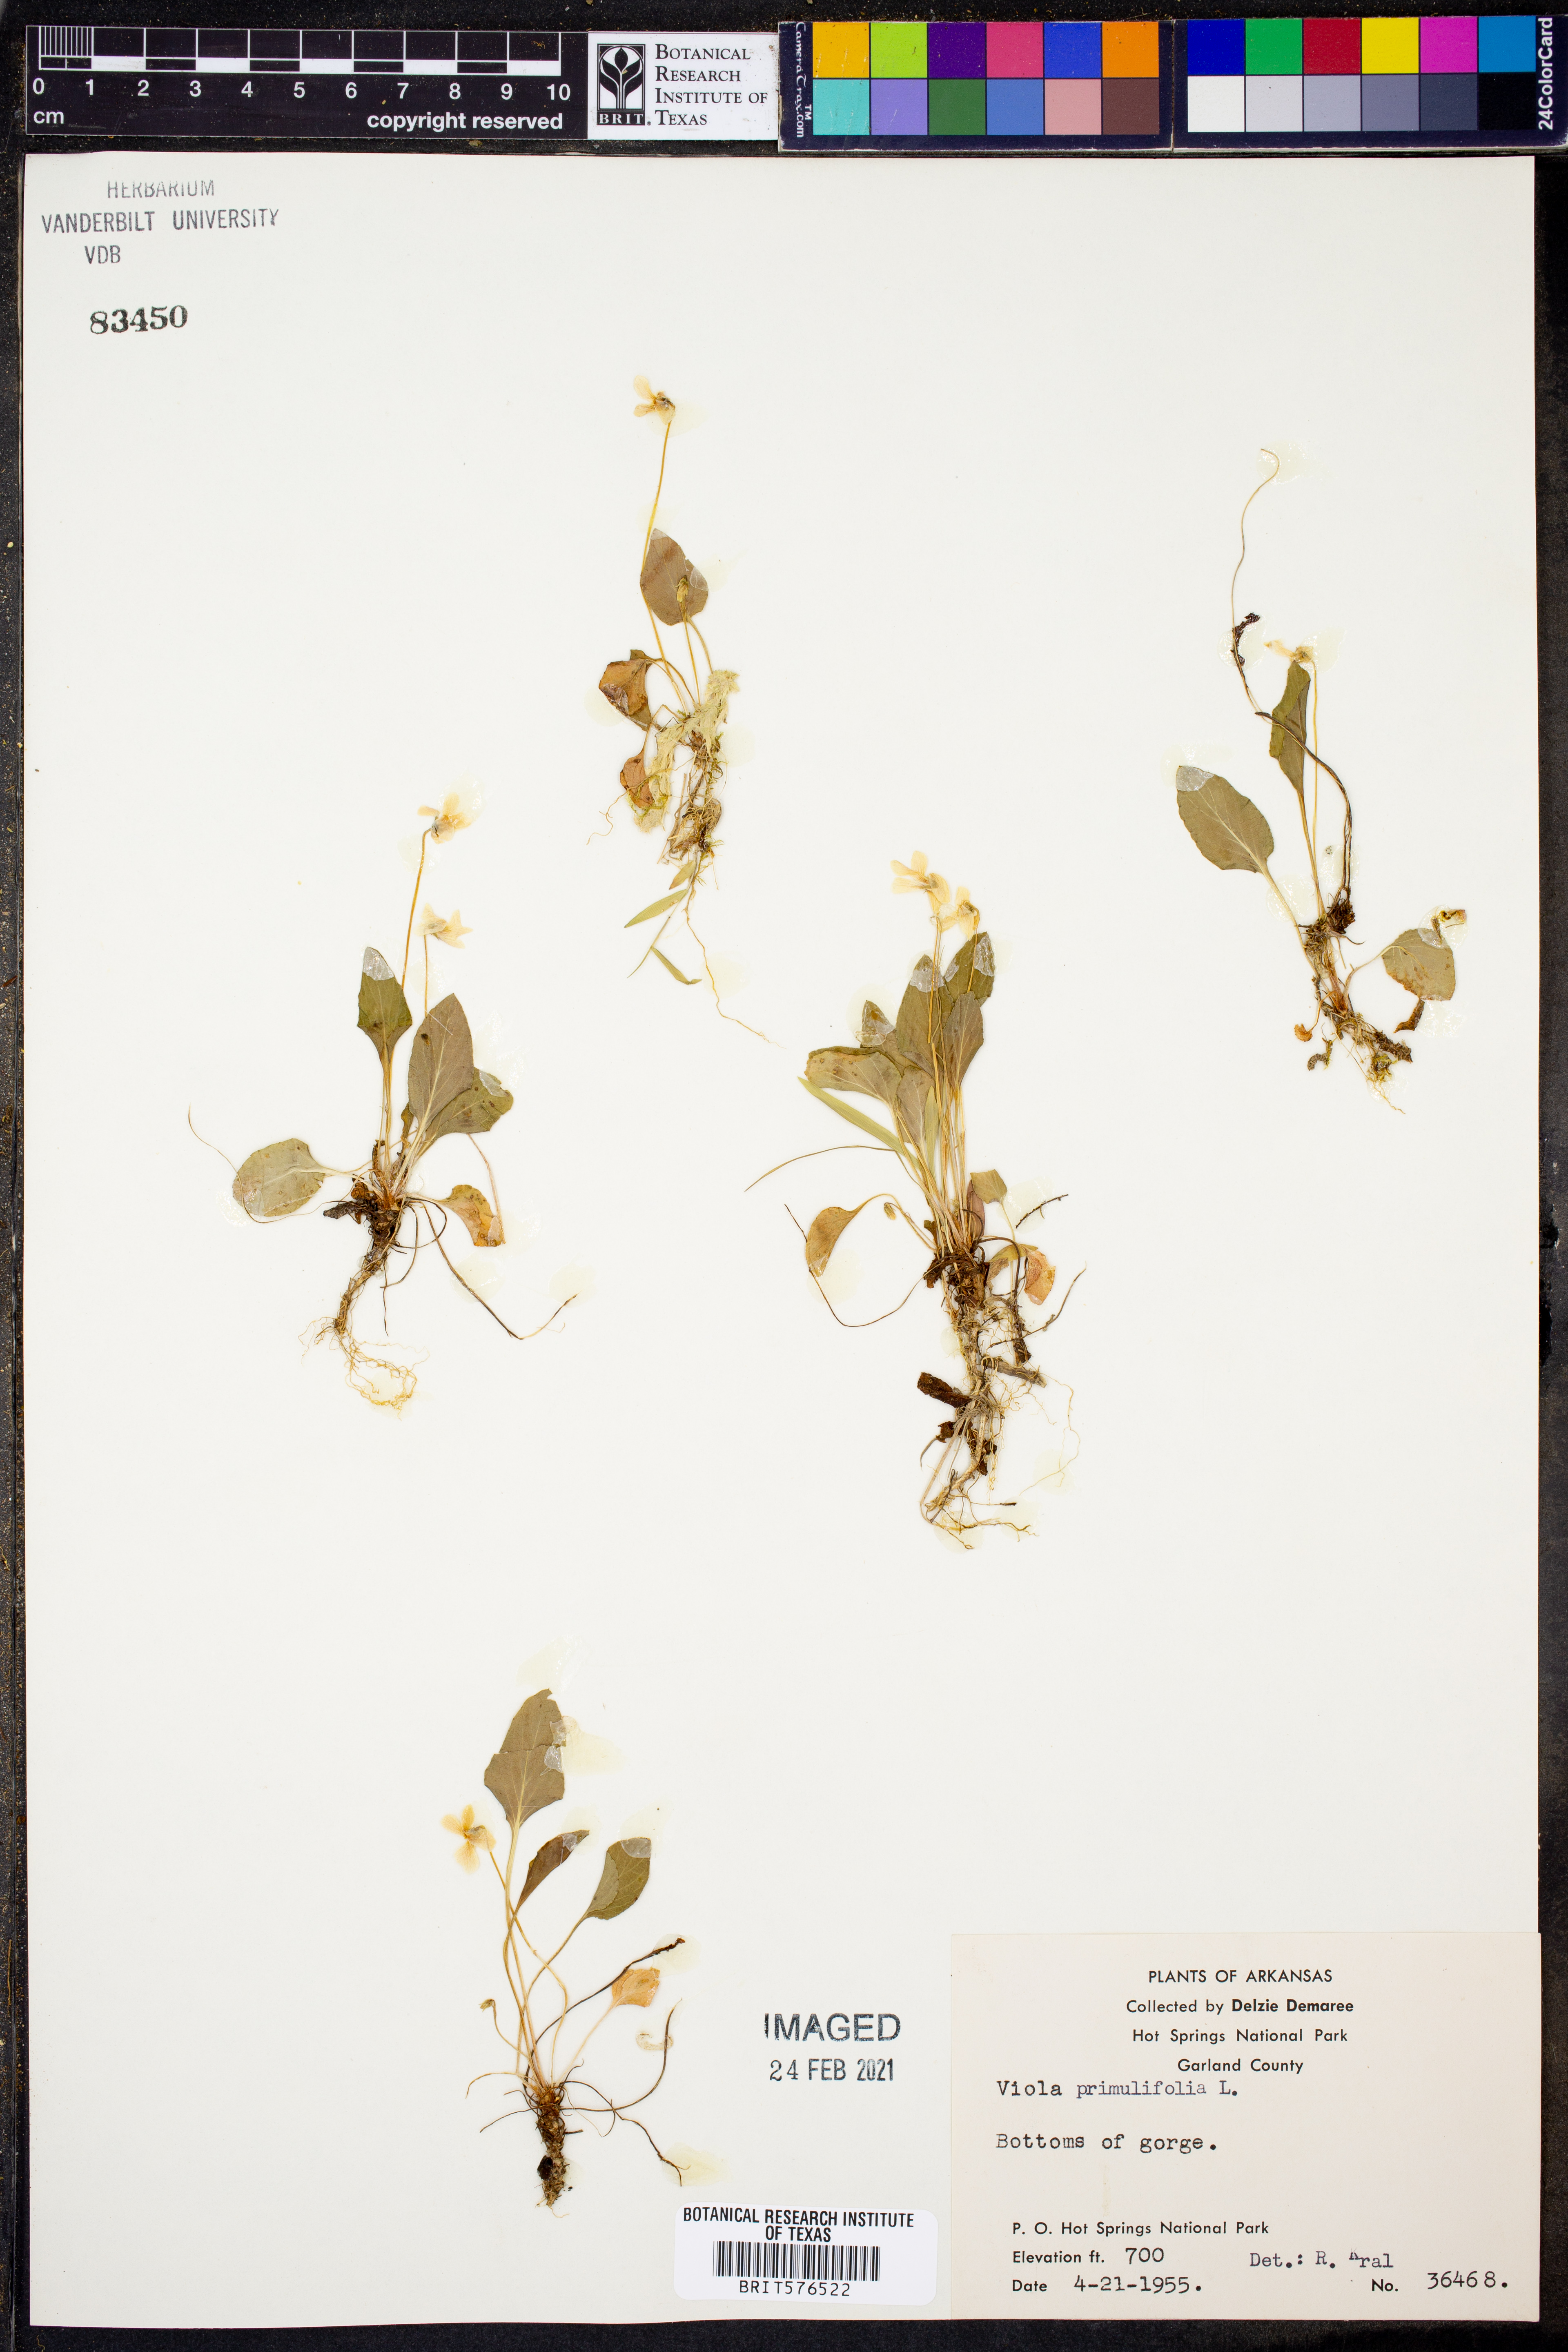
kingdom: Plantae
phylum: Tracheophyta
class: Magnoliopsida
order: Malpighiales
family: Violaceae
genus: Viola
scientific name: Viola primulifolia
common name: Primrose-leaf violet
